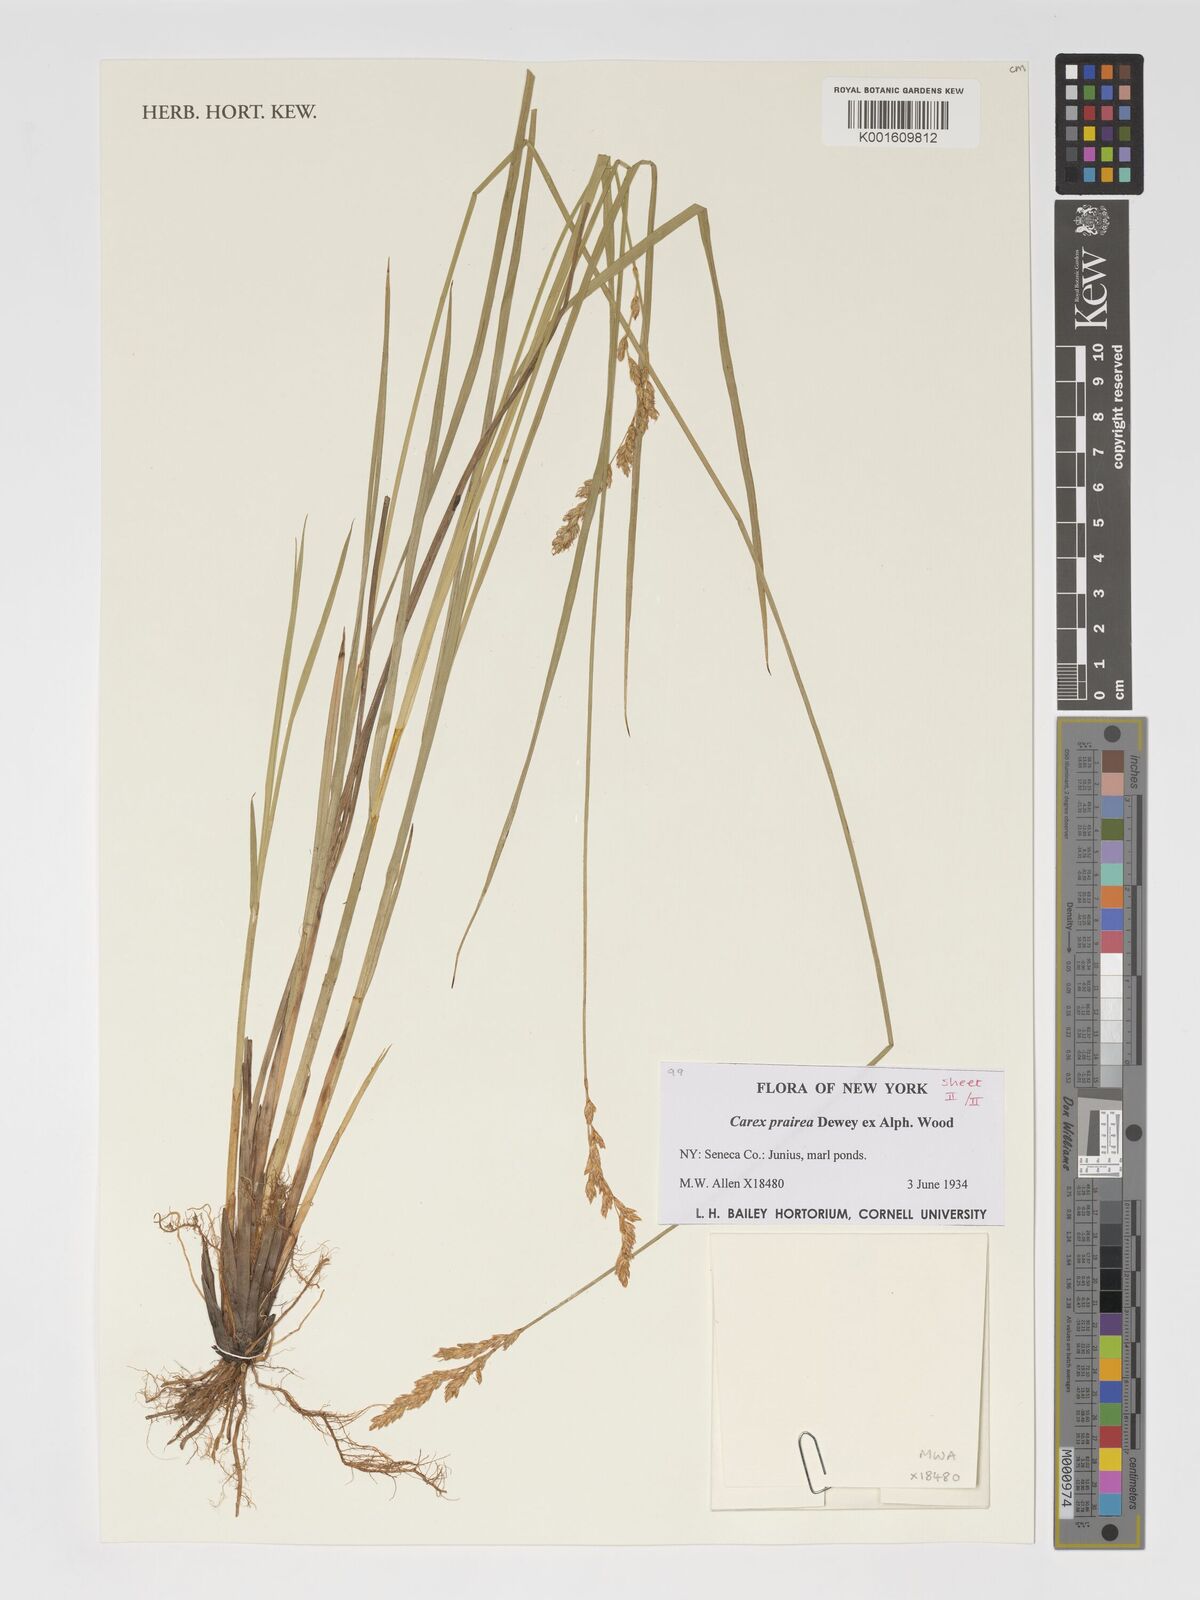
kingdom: Plantae
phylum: Tracheophyta
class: Liliopsida
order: Poales
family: Cyperaceae
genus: Carex
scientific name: Carex prairea
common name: Prairie sedge
